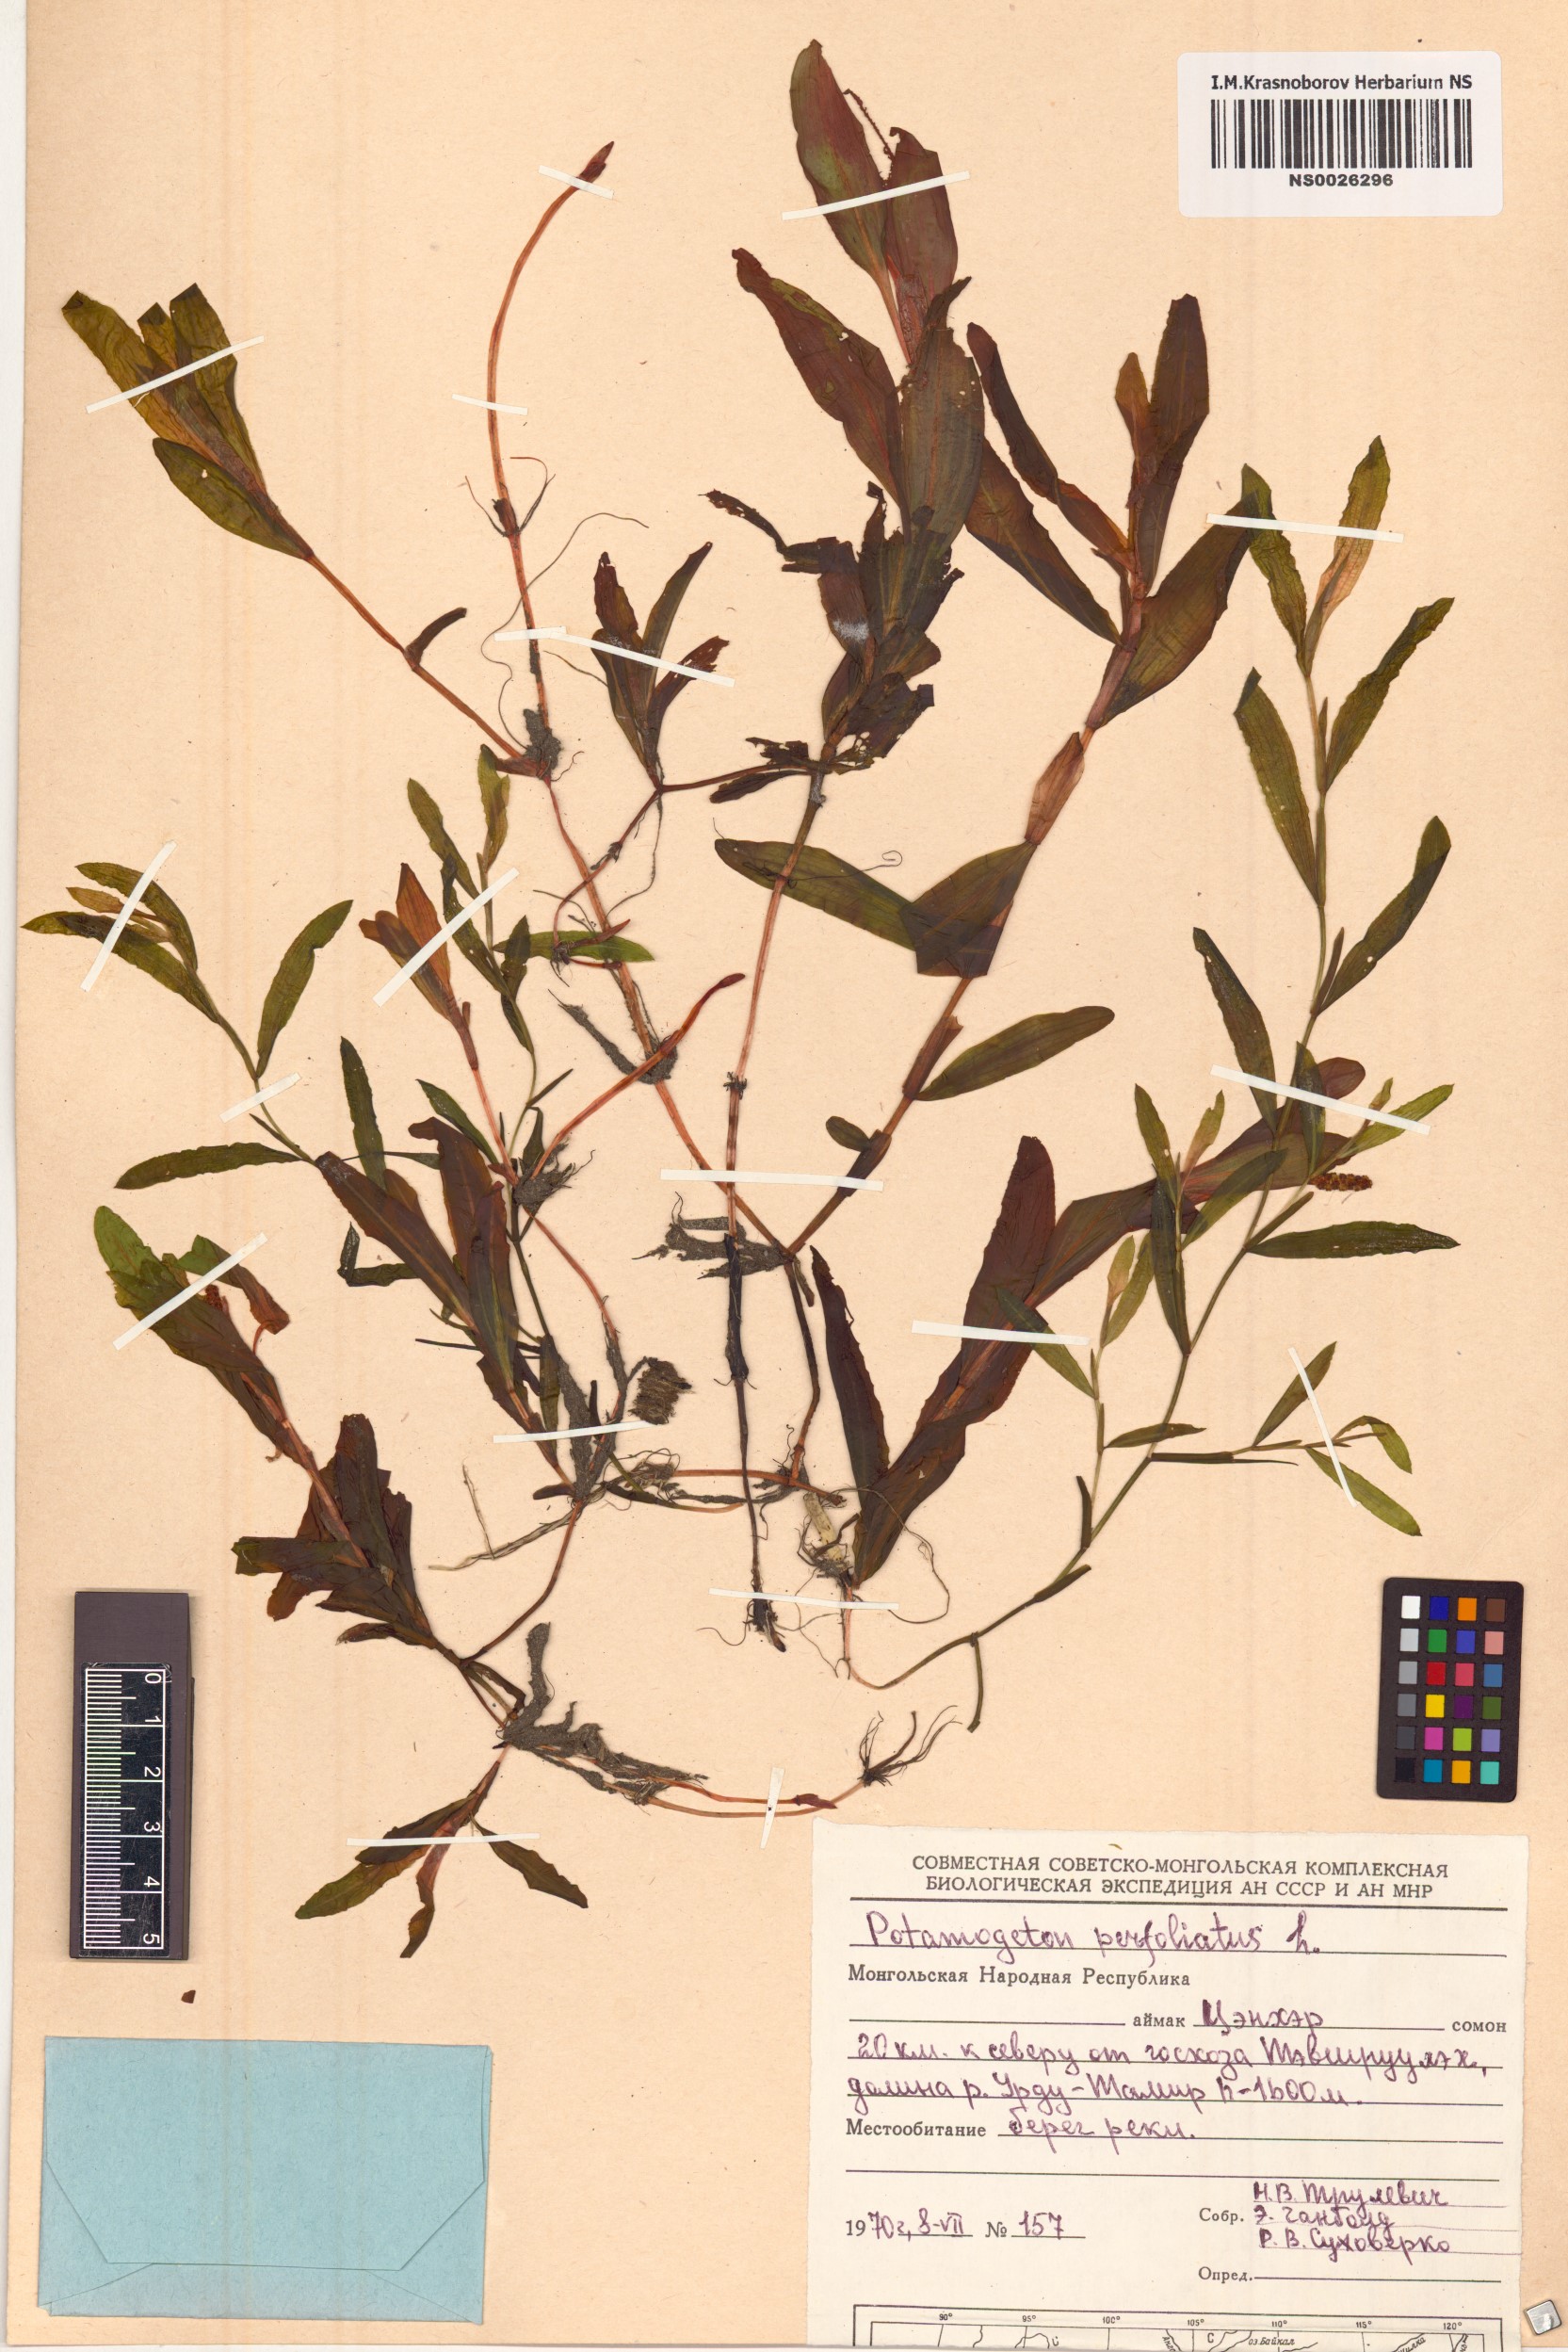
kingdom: Plantae
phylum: Tracheophyta
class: Liliopsida
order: Alismatales
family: Potamogetonaceae
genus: Potamogeton
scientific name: Potamogeton perfoliatus
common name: Perfoliate pondweed
